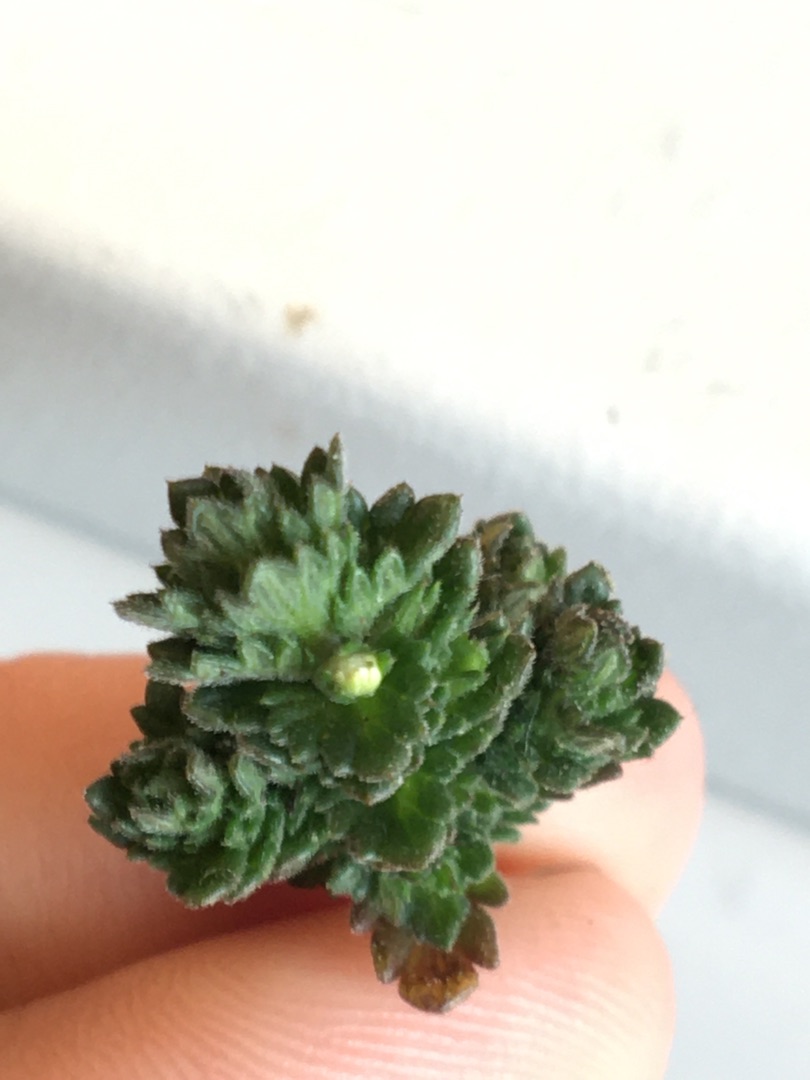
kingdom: Plantae
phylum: Tracheophyta
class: Magnoliopsida
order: Lamiales
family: Orobanchaceae
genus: Euphrasia
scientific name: Euphrasia nemorosa
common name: Kort øjentrøst
